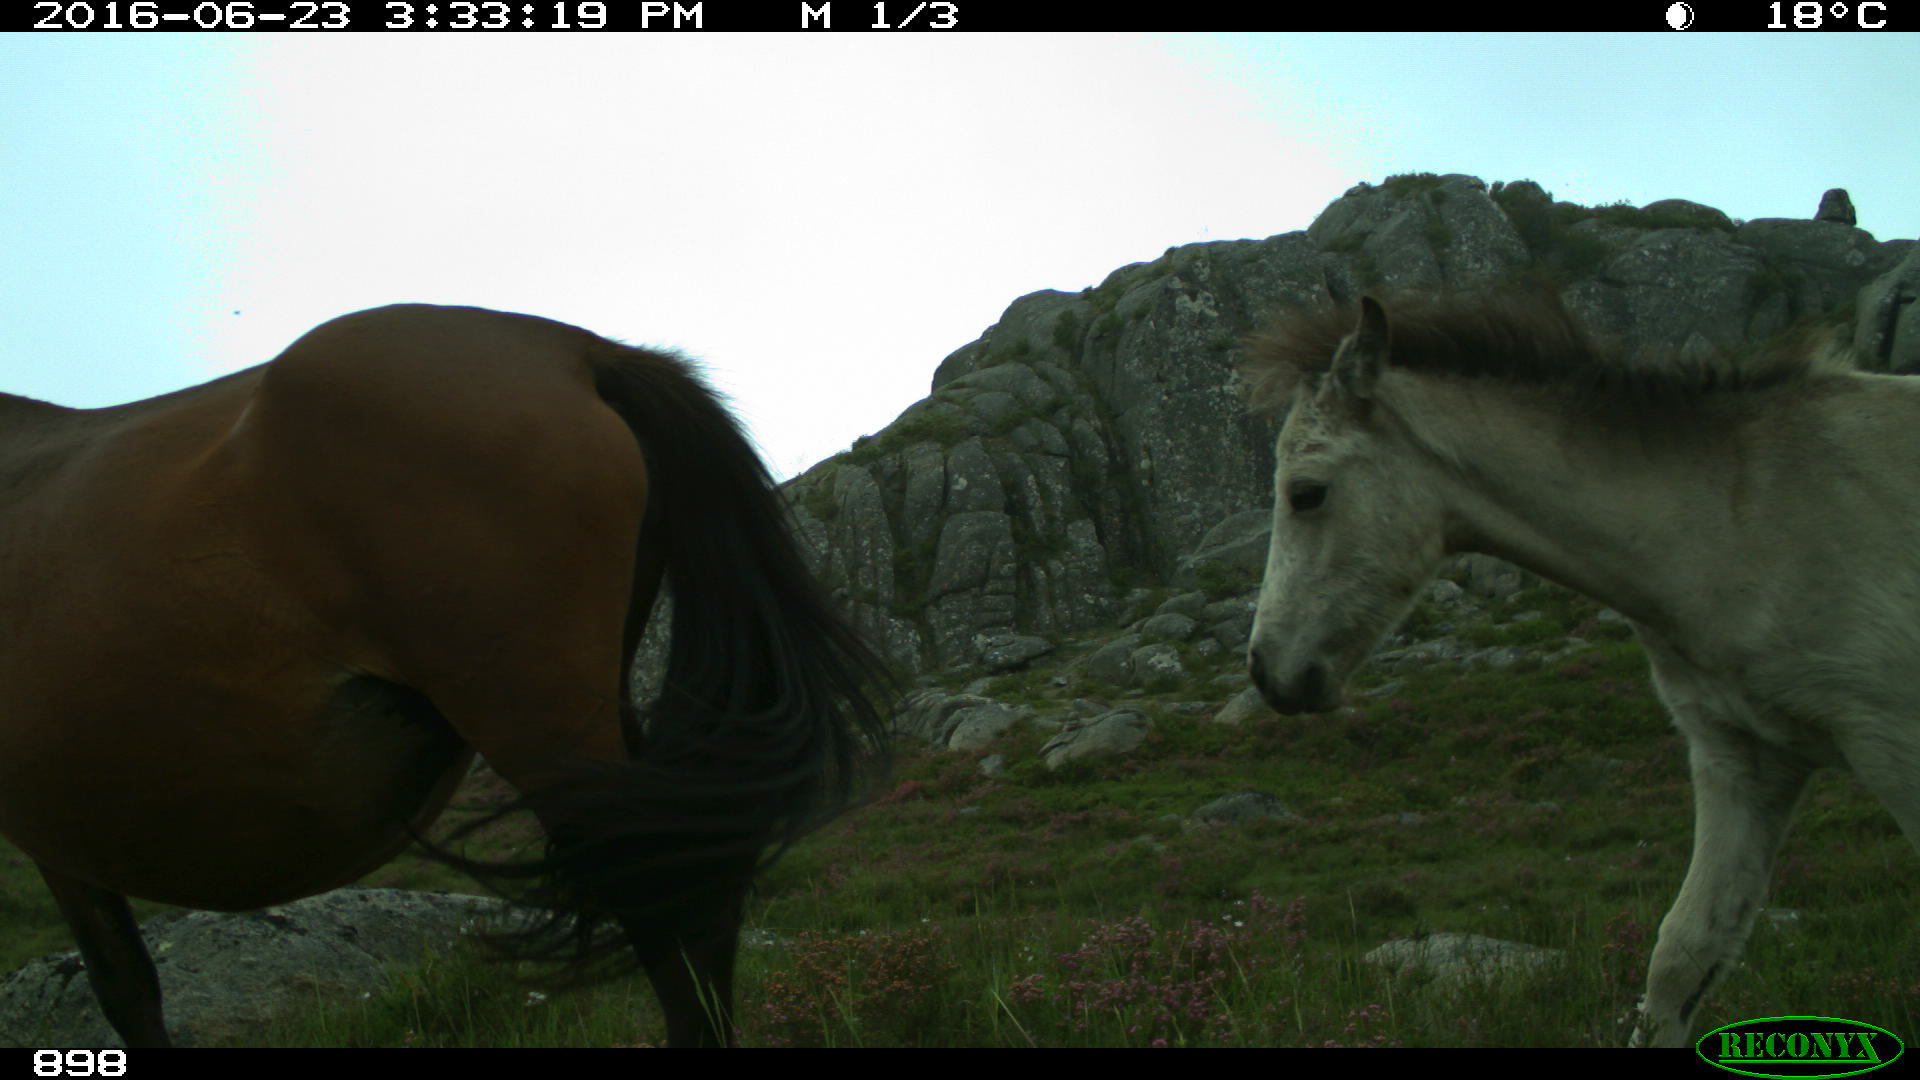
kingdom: Animalia
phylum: Chordata
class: Mammalia
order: Perissodactyla
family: Equidae
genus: Equus
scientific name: Equus caballus
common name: Horse
